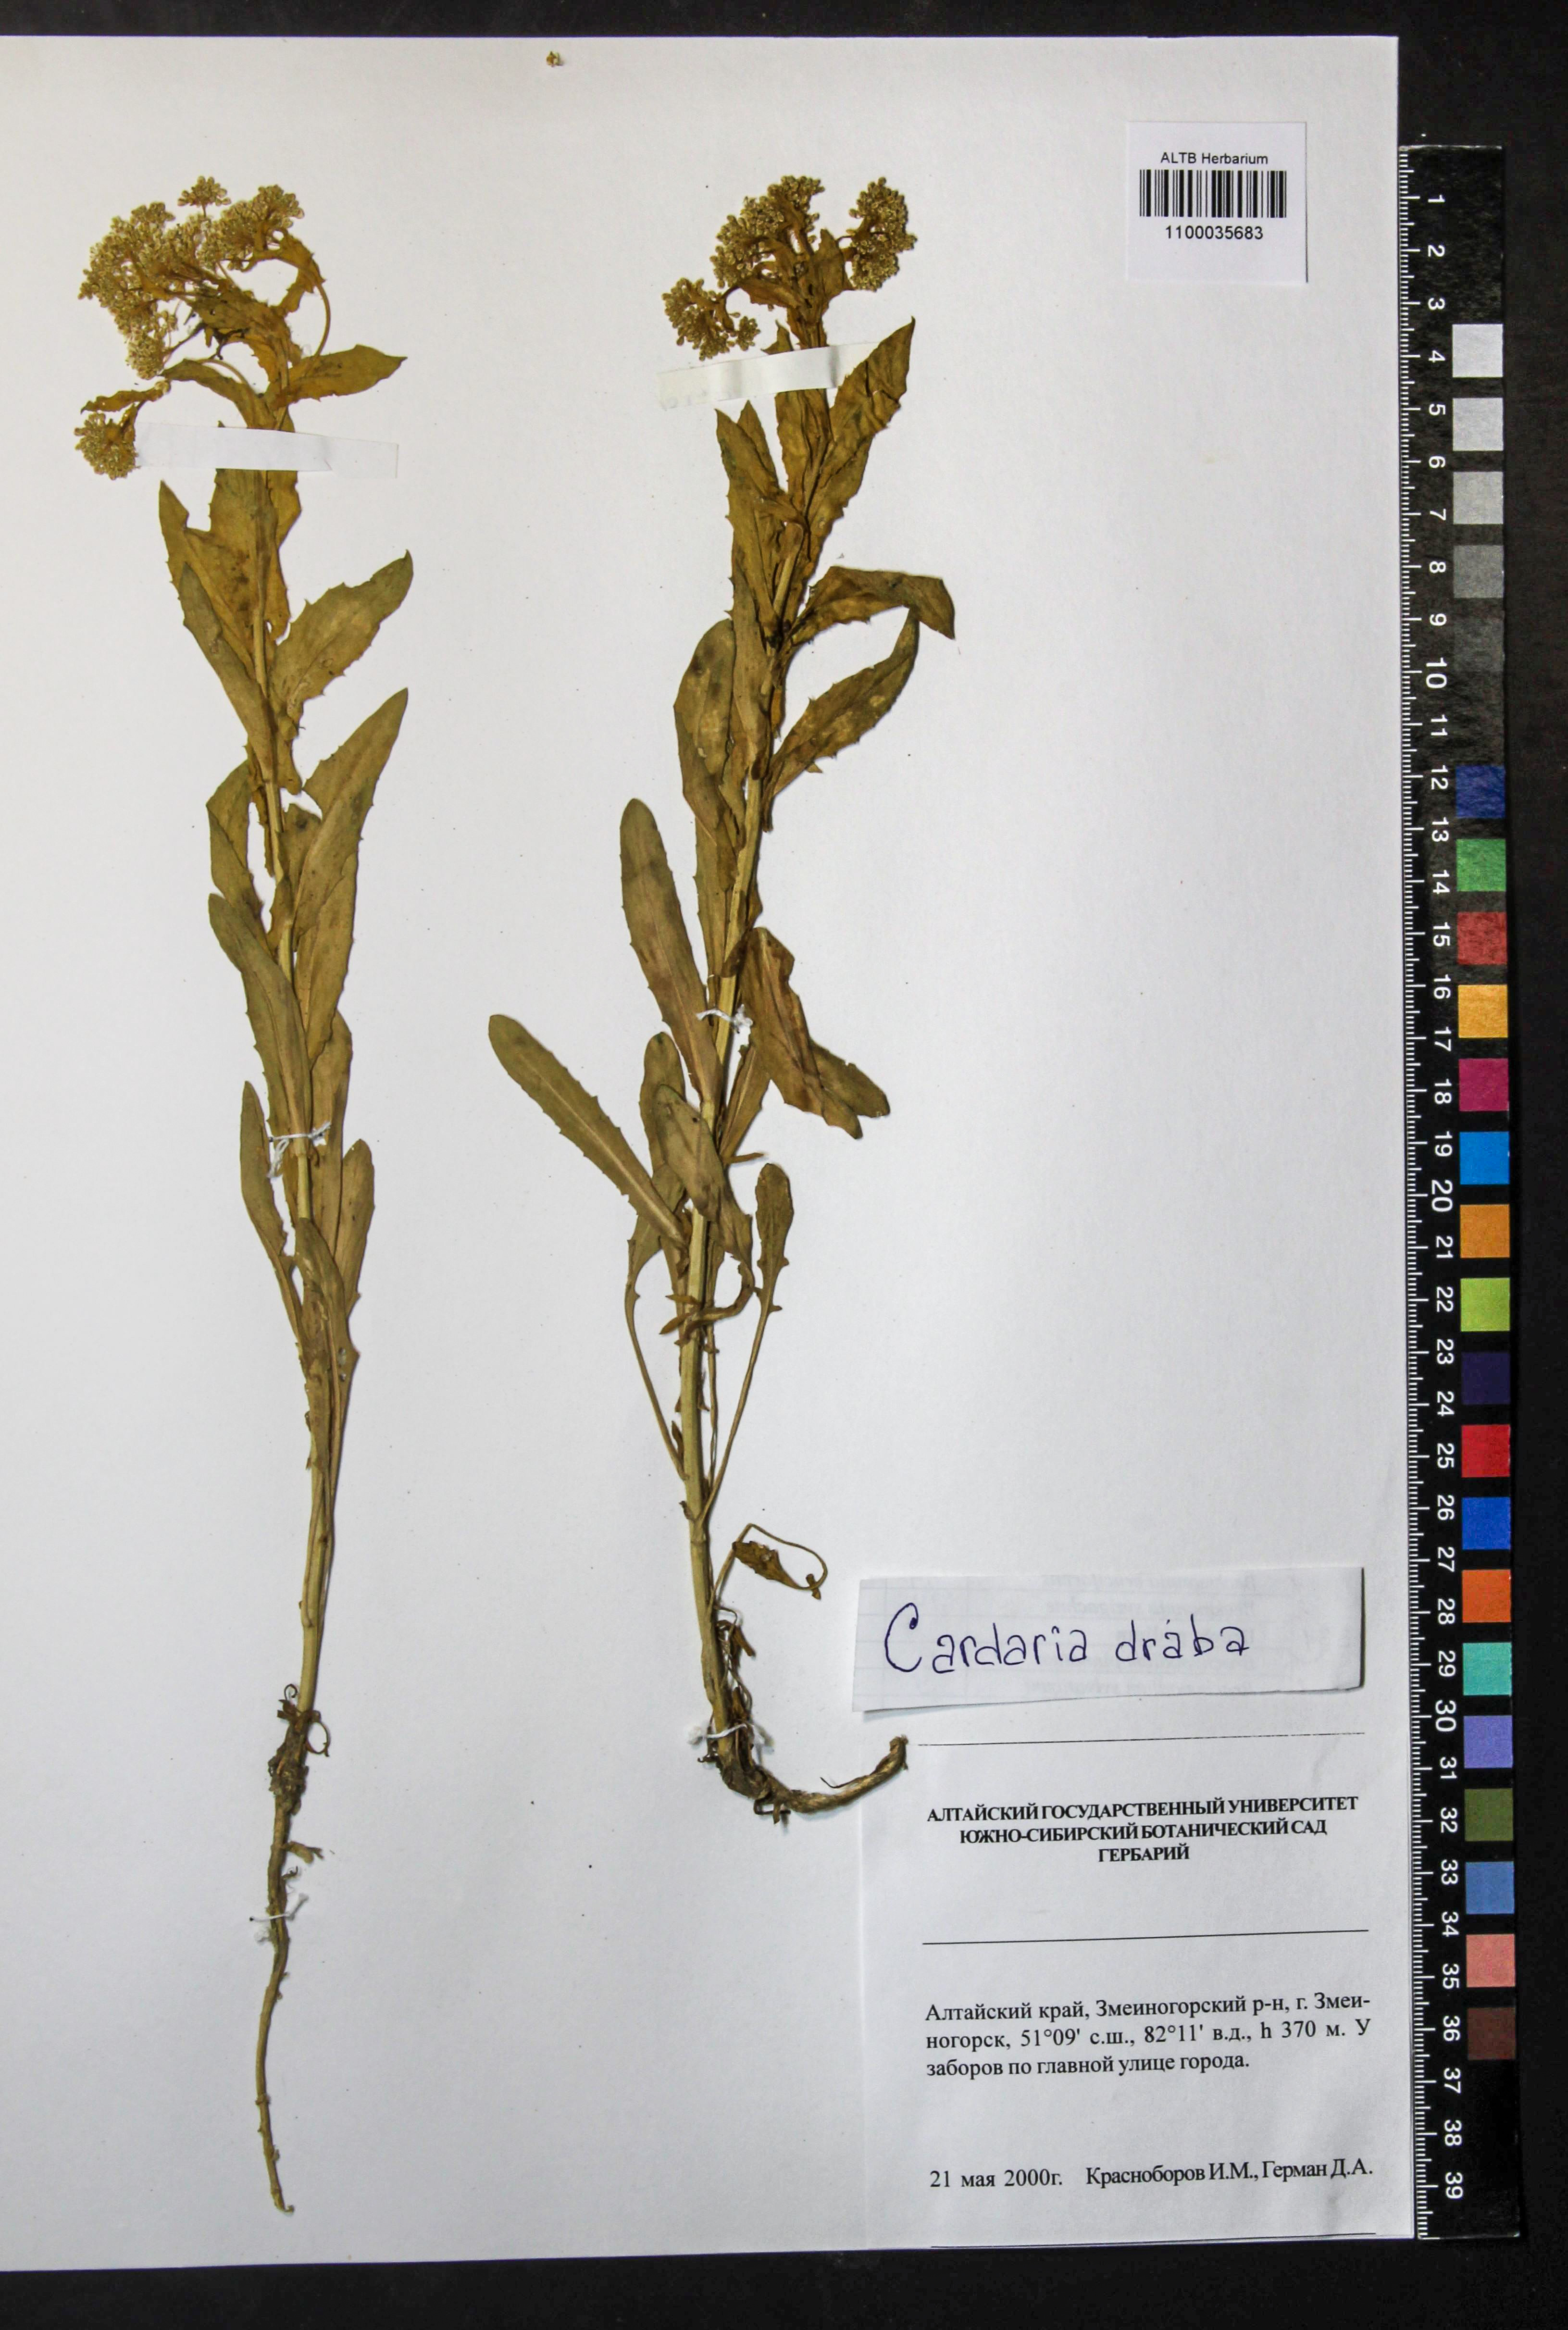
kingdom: Plantae
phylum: Tracheophyta
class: Magnoliopsida
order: Brassicales
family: Brassicaceae
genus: Lepidium
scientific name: Lepidium draba
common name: Hoary cress
